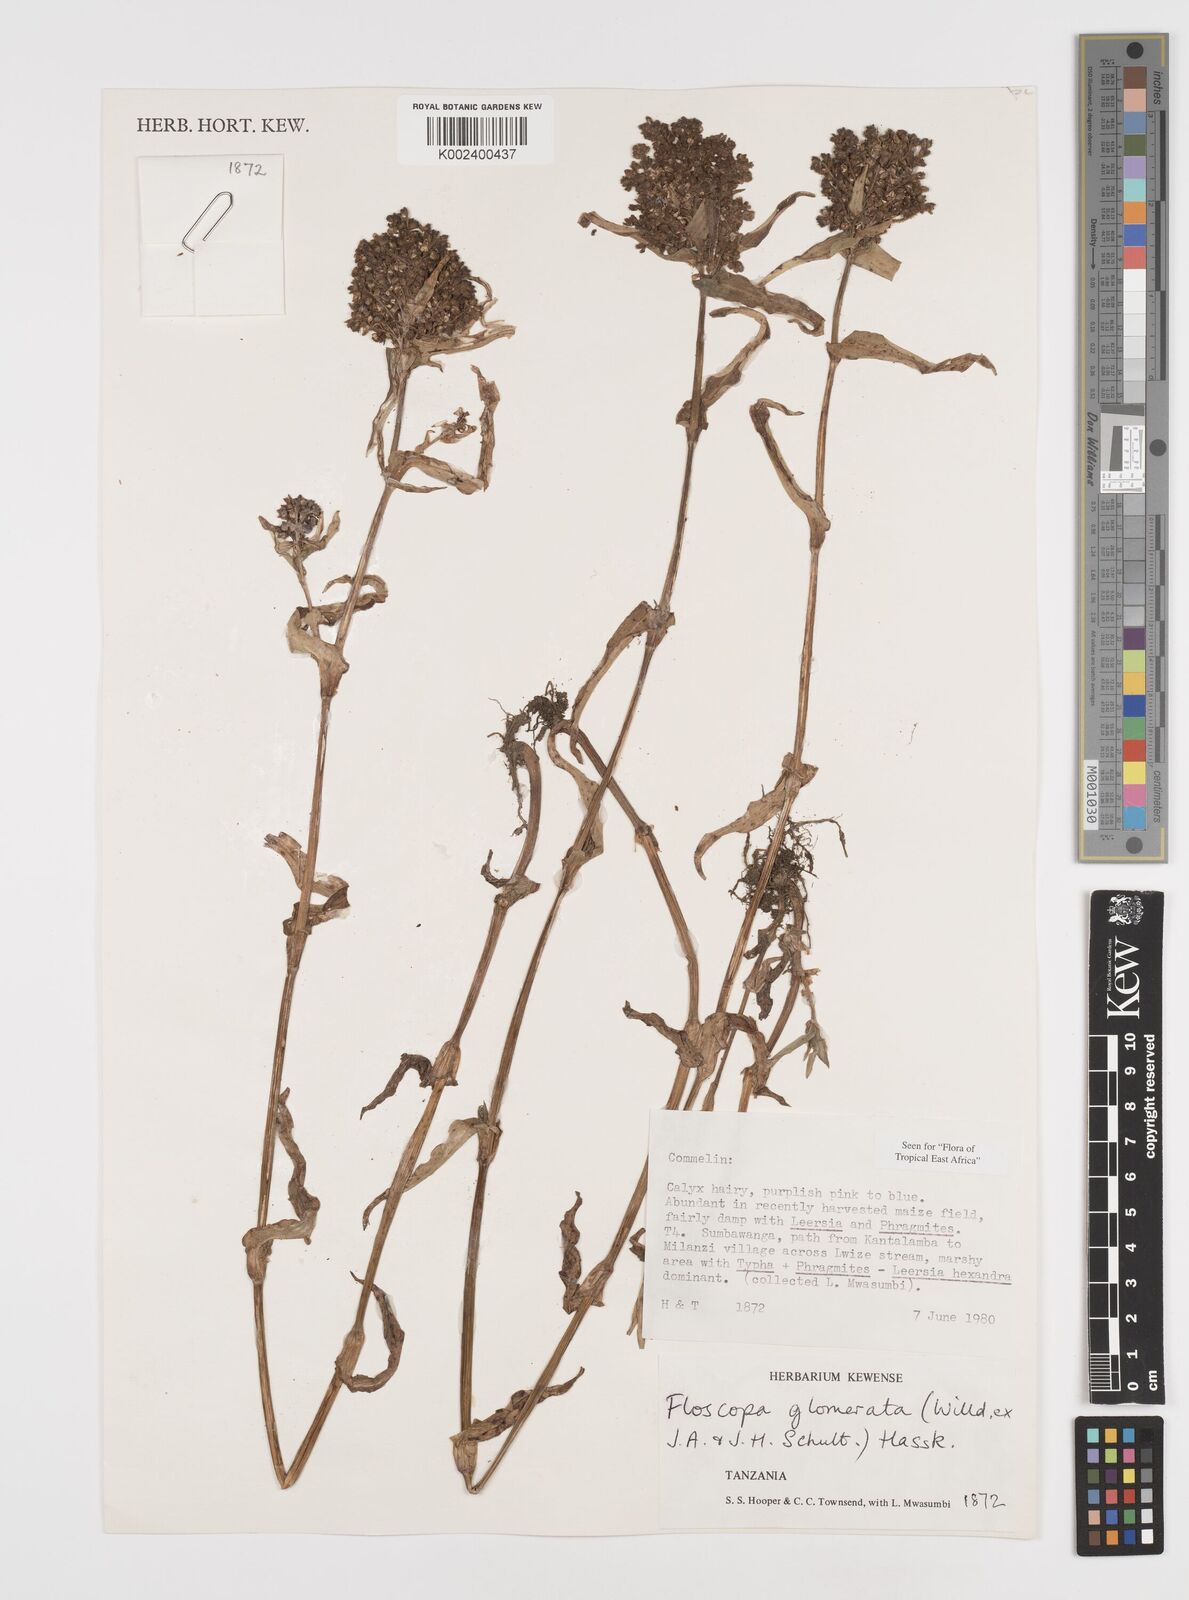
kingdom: Plantae
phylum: Tracheophyta
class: Liliopsida
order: Commelinales
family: Commelinaceae
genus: Floscopa
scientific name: Floscopa glomerata
